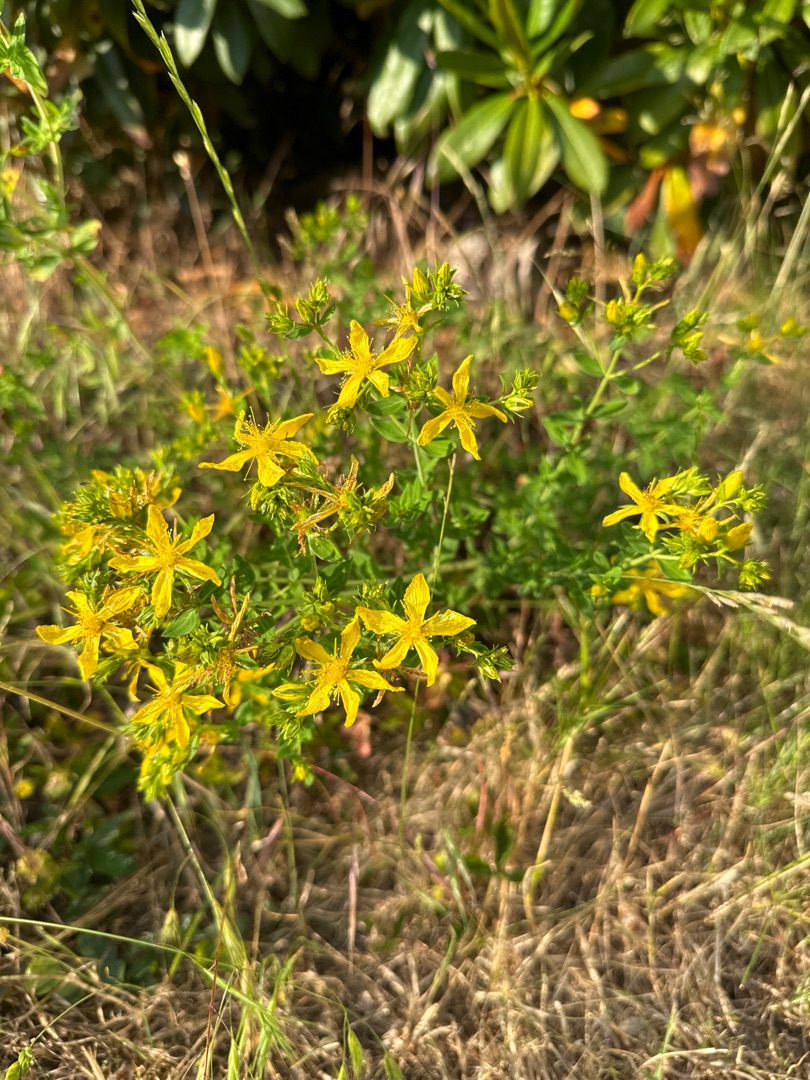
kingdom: Plantae
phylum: Tracheophyta
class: Magnoliopsida
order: Malpighiales
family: Hypericaceae
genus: Hypericum
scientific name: Hypericum perforatum
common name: Prikbladet perikon
